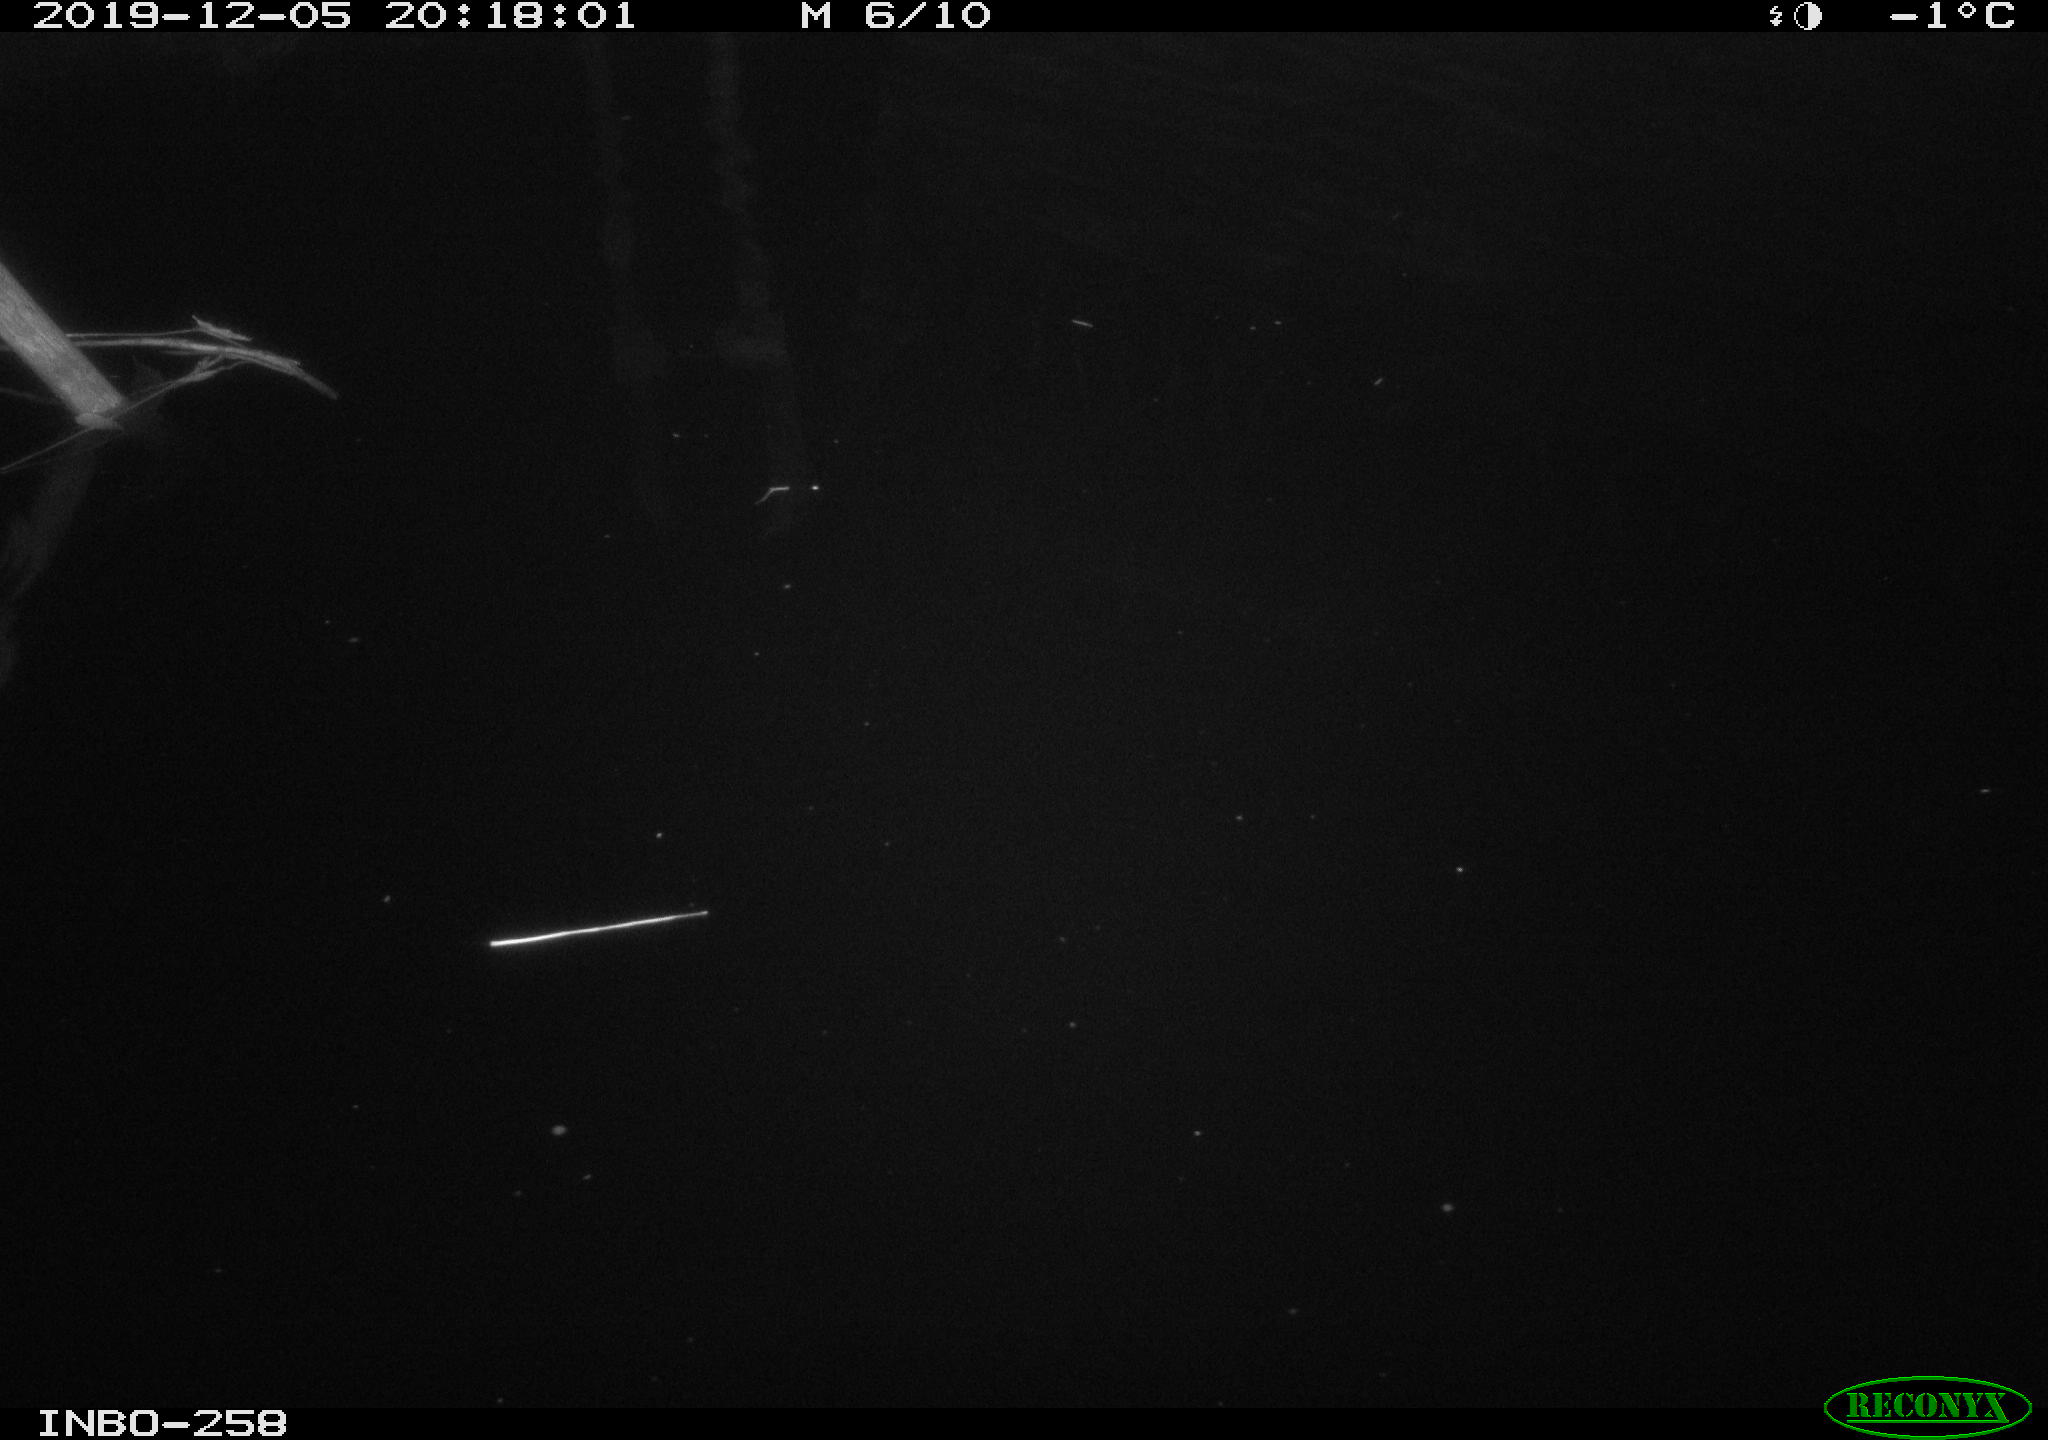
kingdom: Animalia
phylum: Chordata
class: Aves
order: Anseriformes
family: Anatidae
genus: Anas
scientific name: Anas platyrhynchos
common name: Mallard
